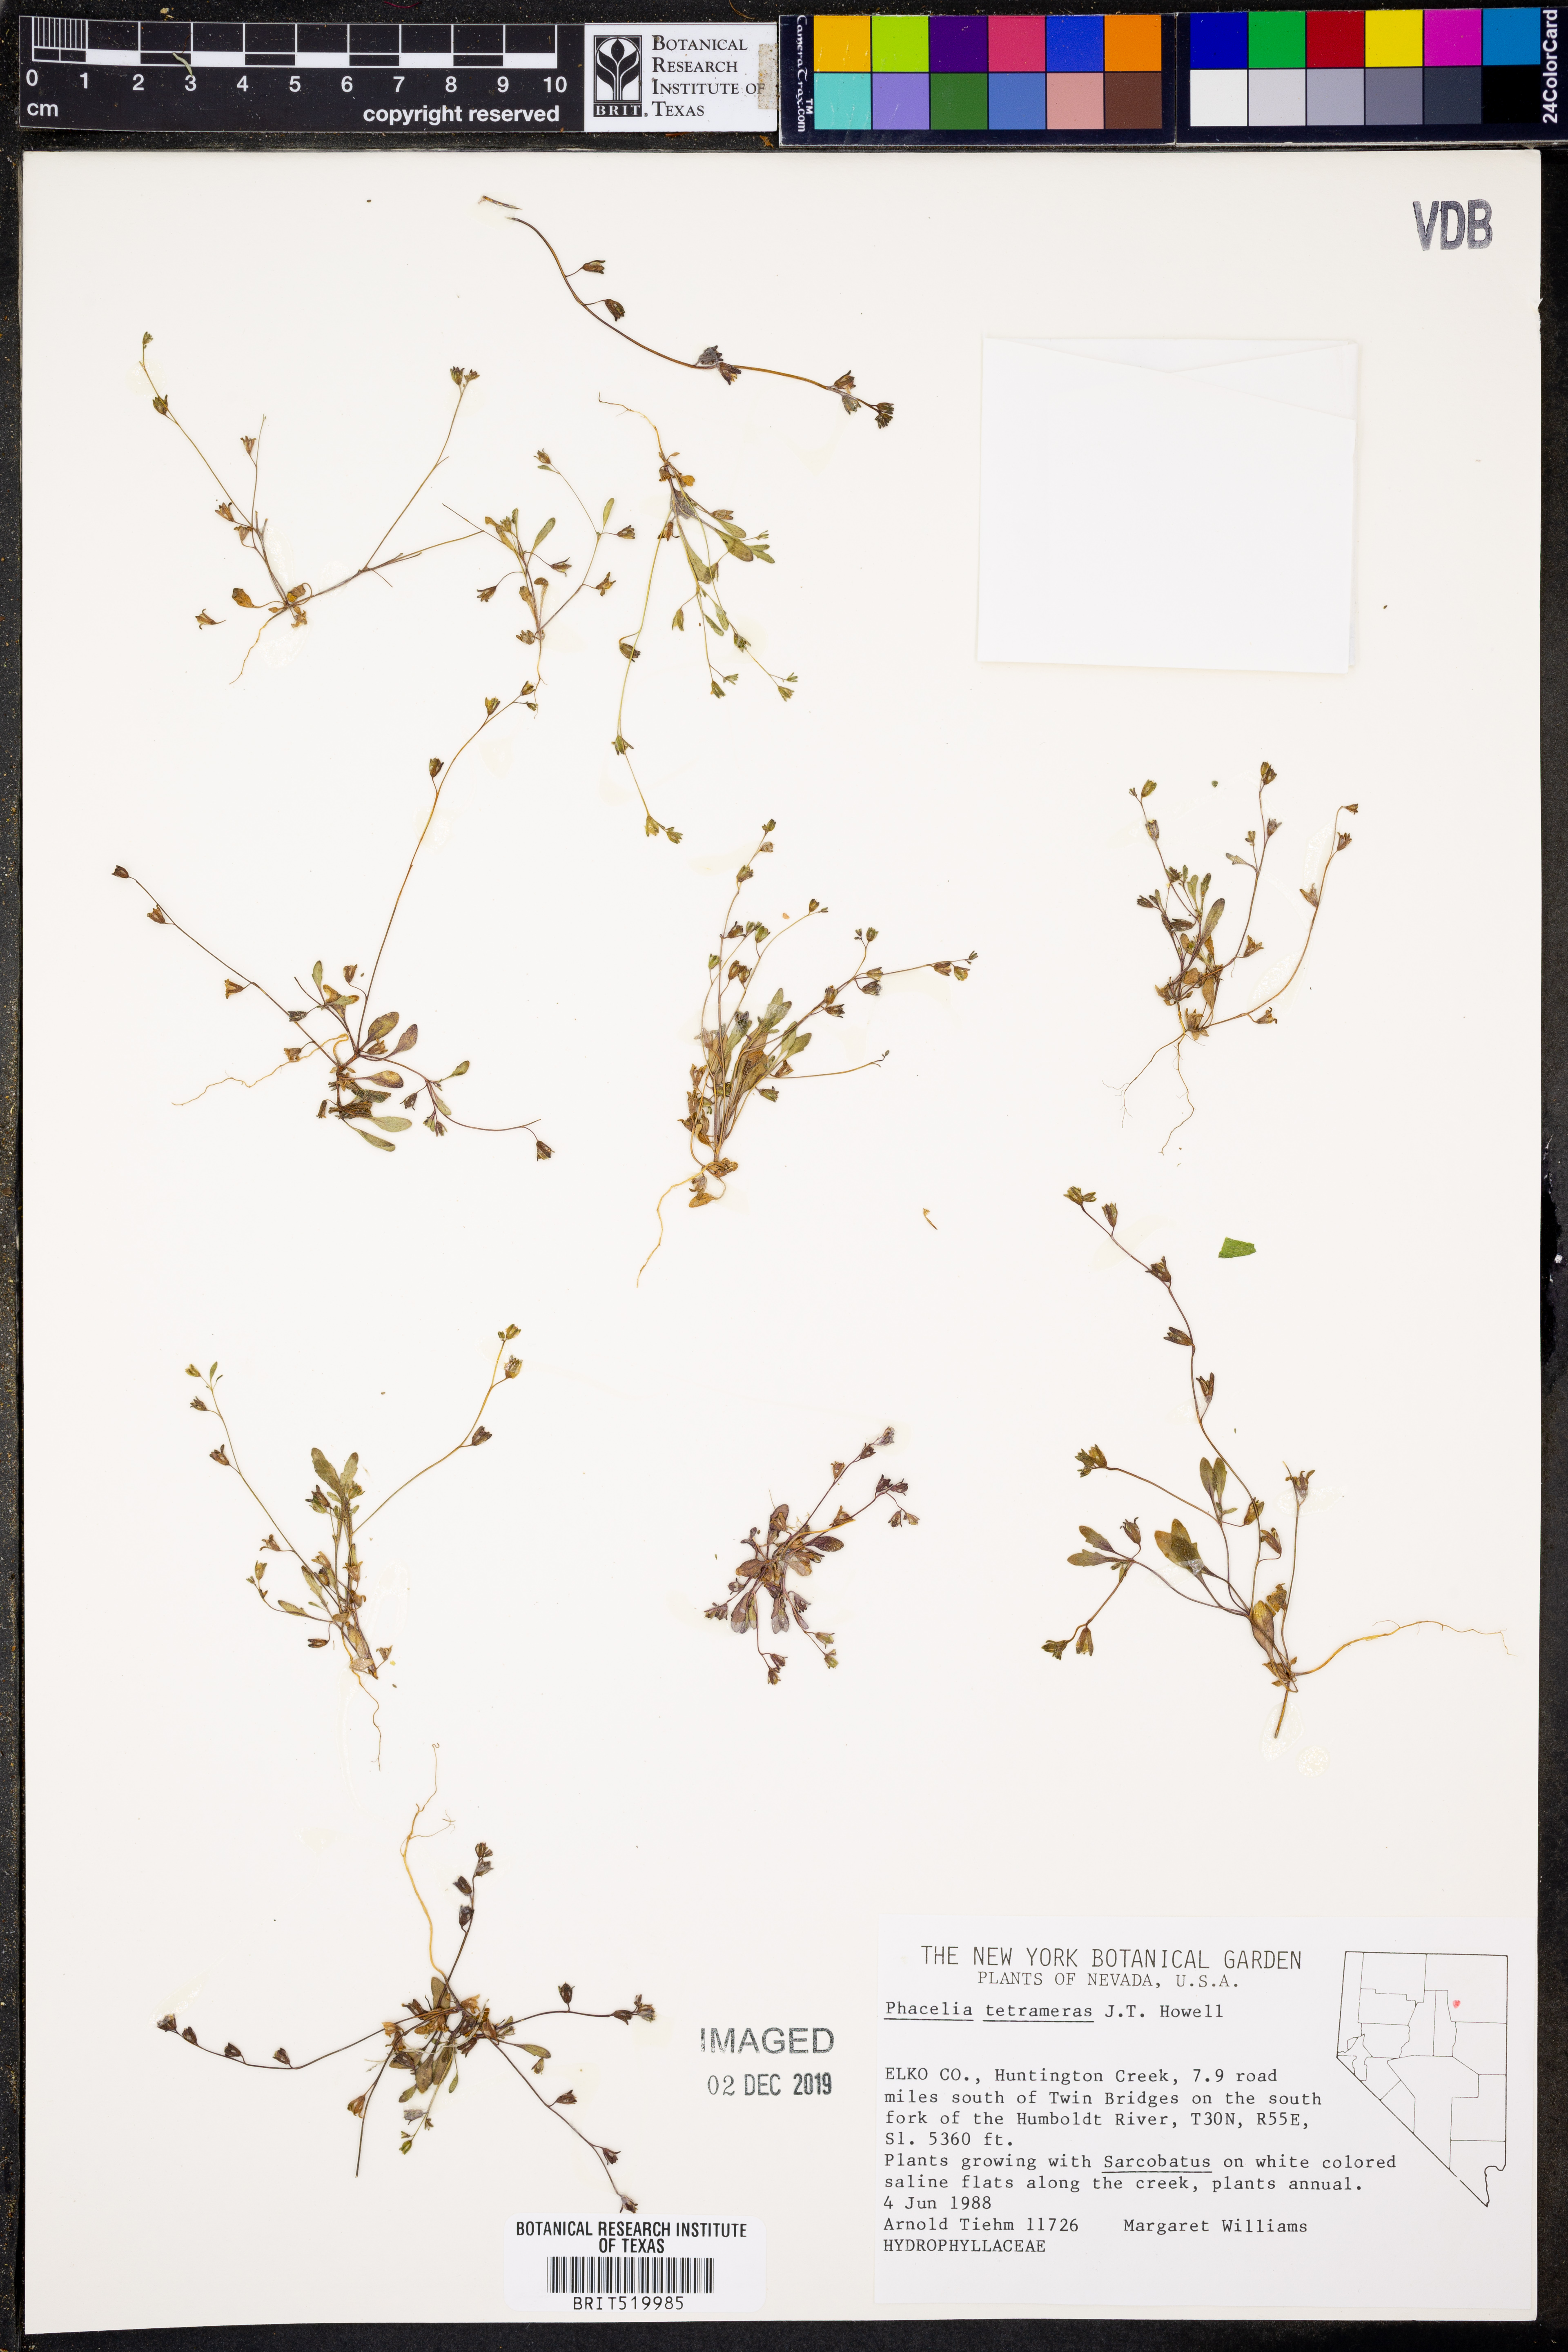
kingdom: Plantae
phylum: Tracheophyta
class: Magnoliopsida
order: Boraginales
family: Hydrophyllaceae
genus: Phacelia
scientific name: Phacelia tetramera
